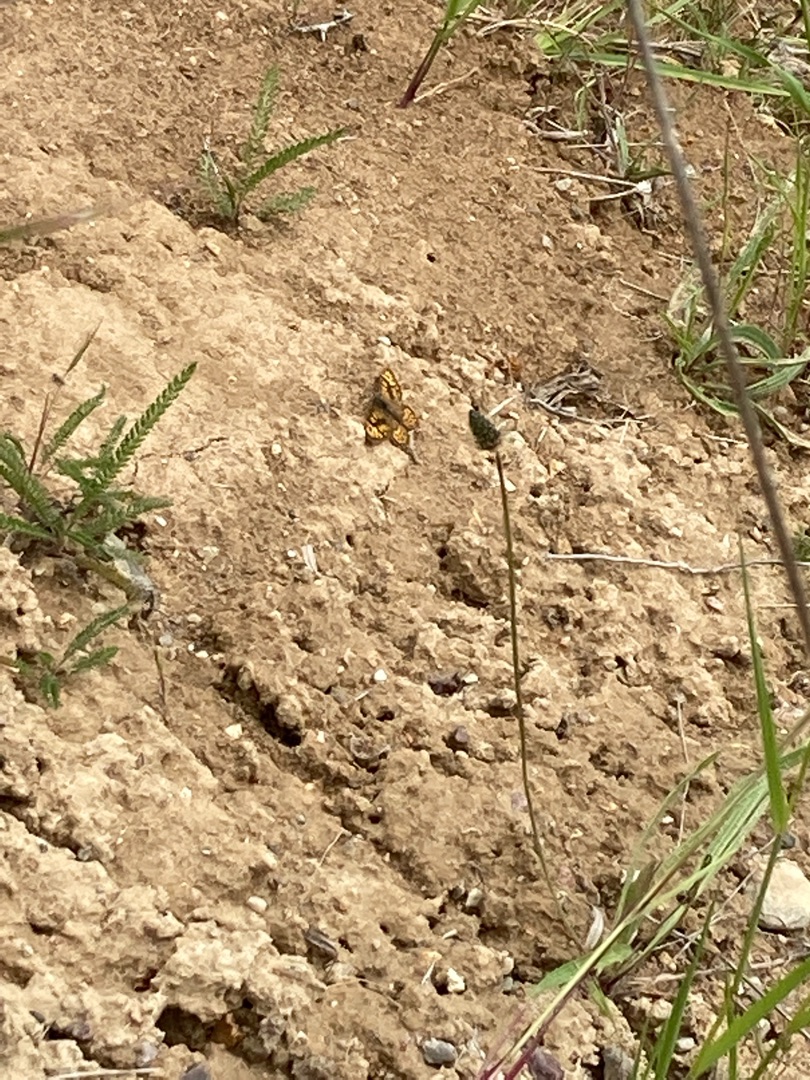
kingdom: Animalia
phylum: Arthropoda
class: Insecta
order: Lepidoptera
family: Nymphalidae
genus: Pararge
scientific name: Pararge Lasiommata megera
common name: Vejrandøje
